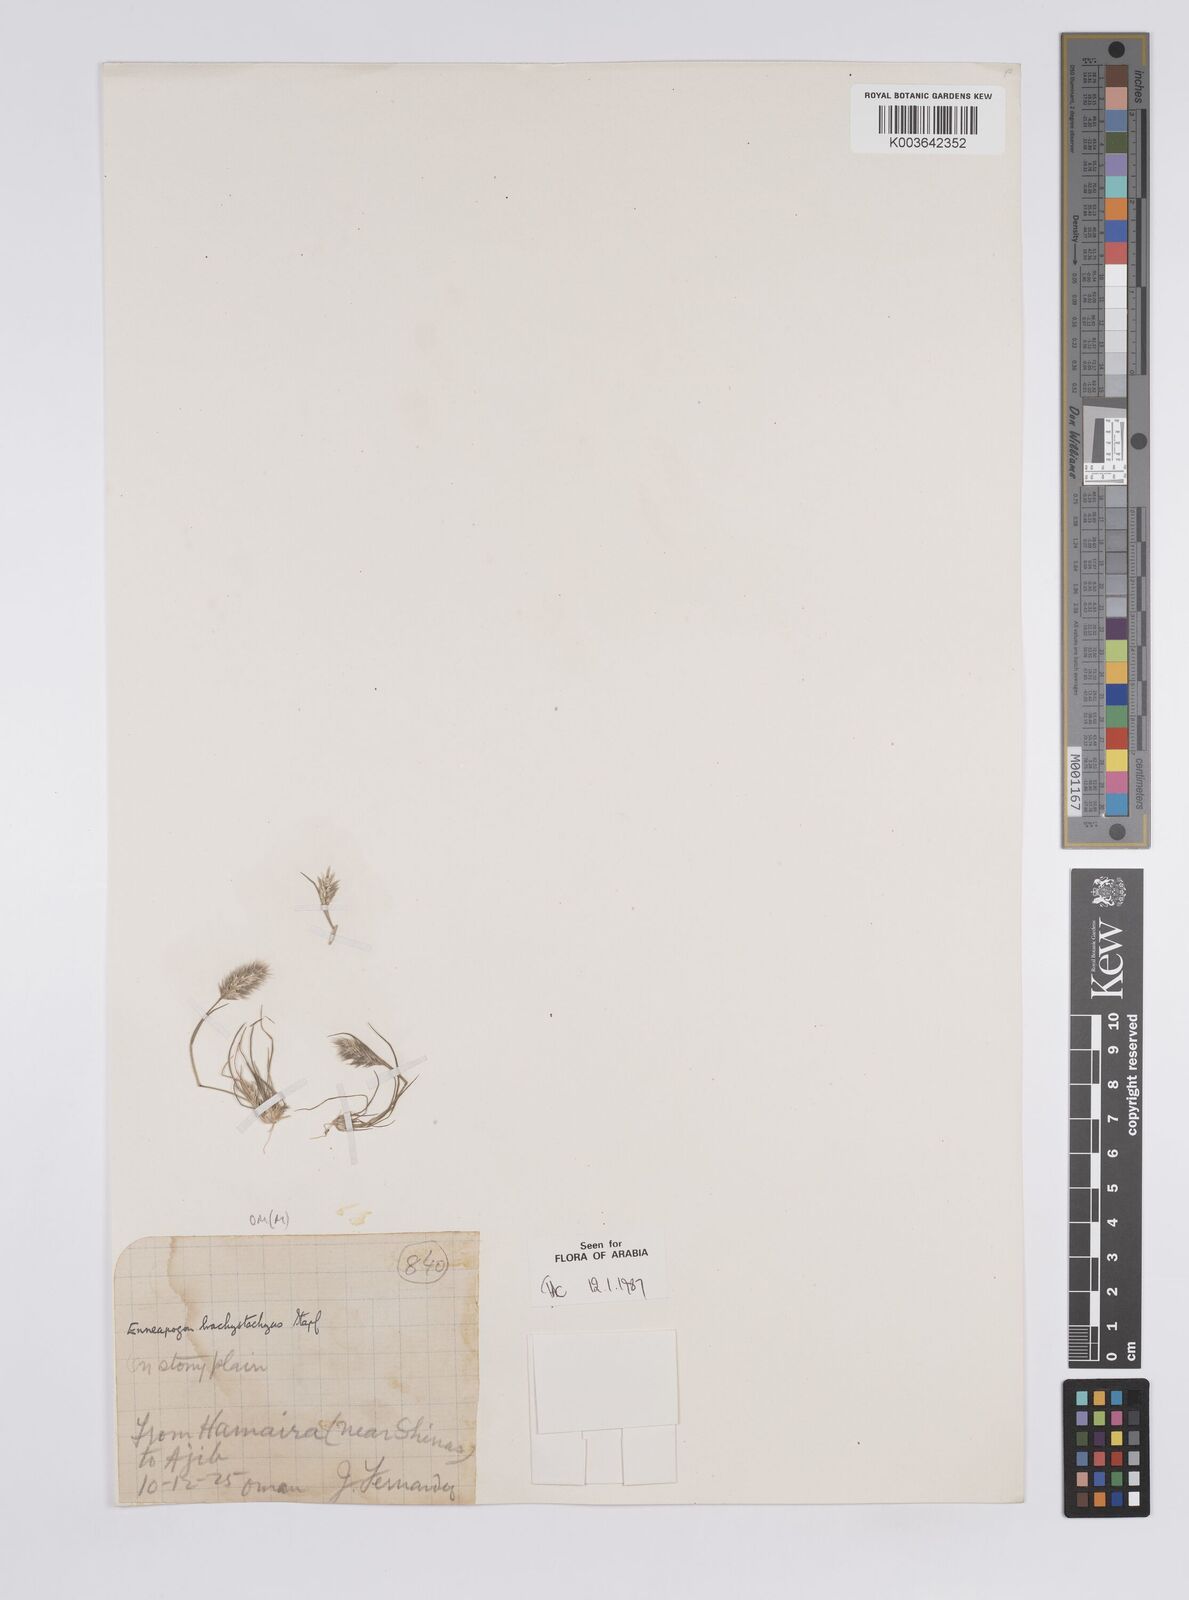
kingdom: Plantae
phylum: Tracheophyta
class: Liliopsida
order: Poales
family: Poaceae
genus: Enneapogon
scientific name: Enneapogon desvauxii
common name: Feather pappus grass
